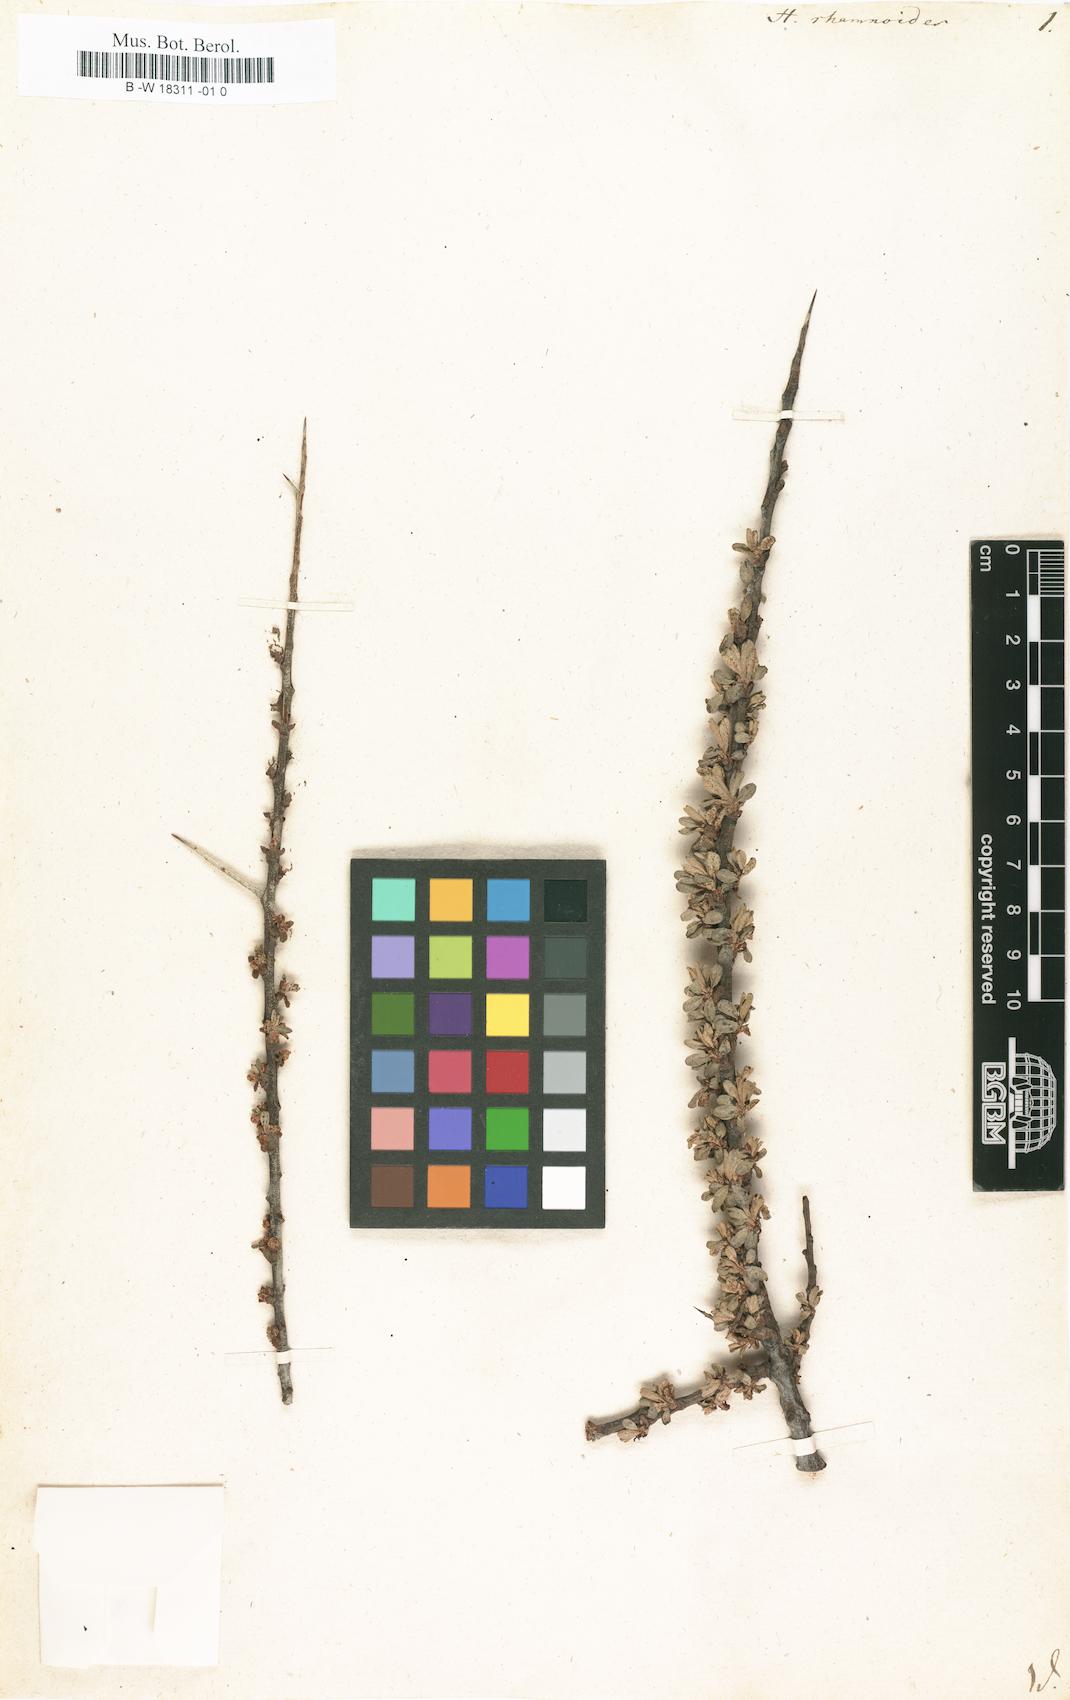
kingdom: Plantae
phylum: Tracheophyta
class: Magnoliopsida
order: Rosales
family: Elaeagnaceae
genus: Hippophae
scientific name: Hippophae rhamnoides
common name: Sea-buckthorn
